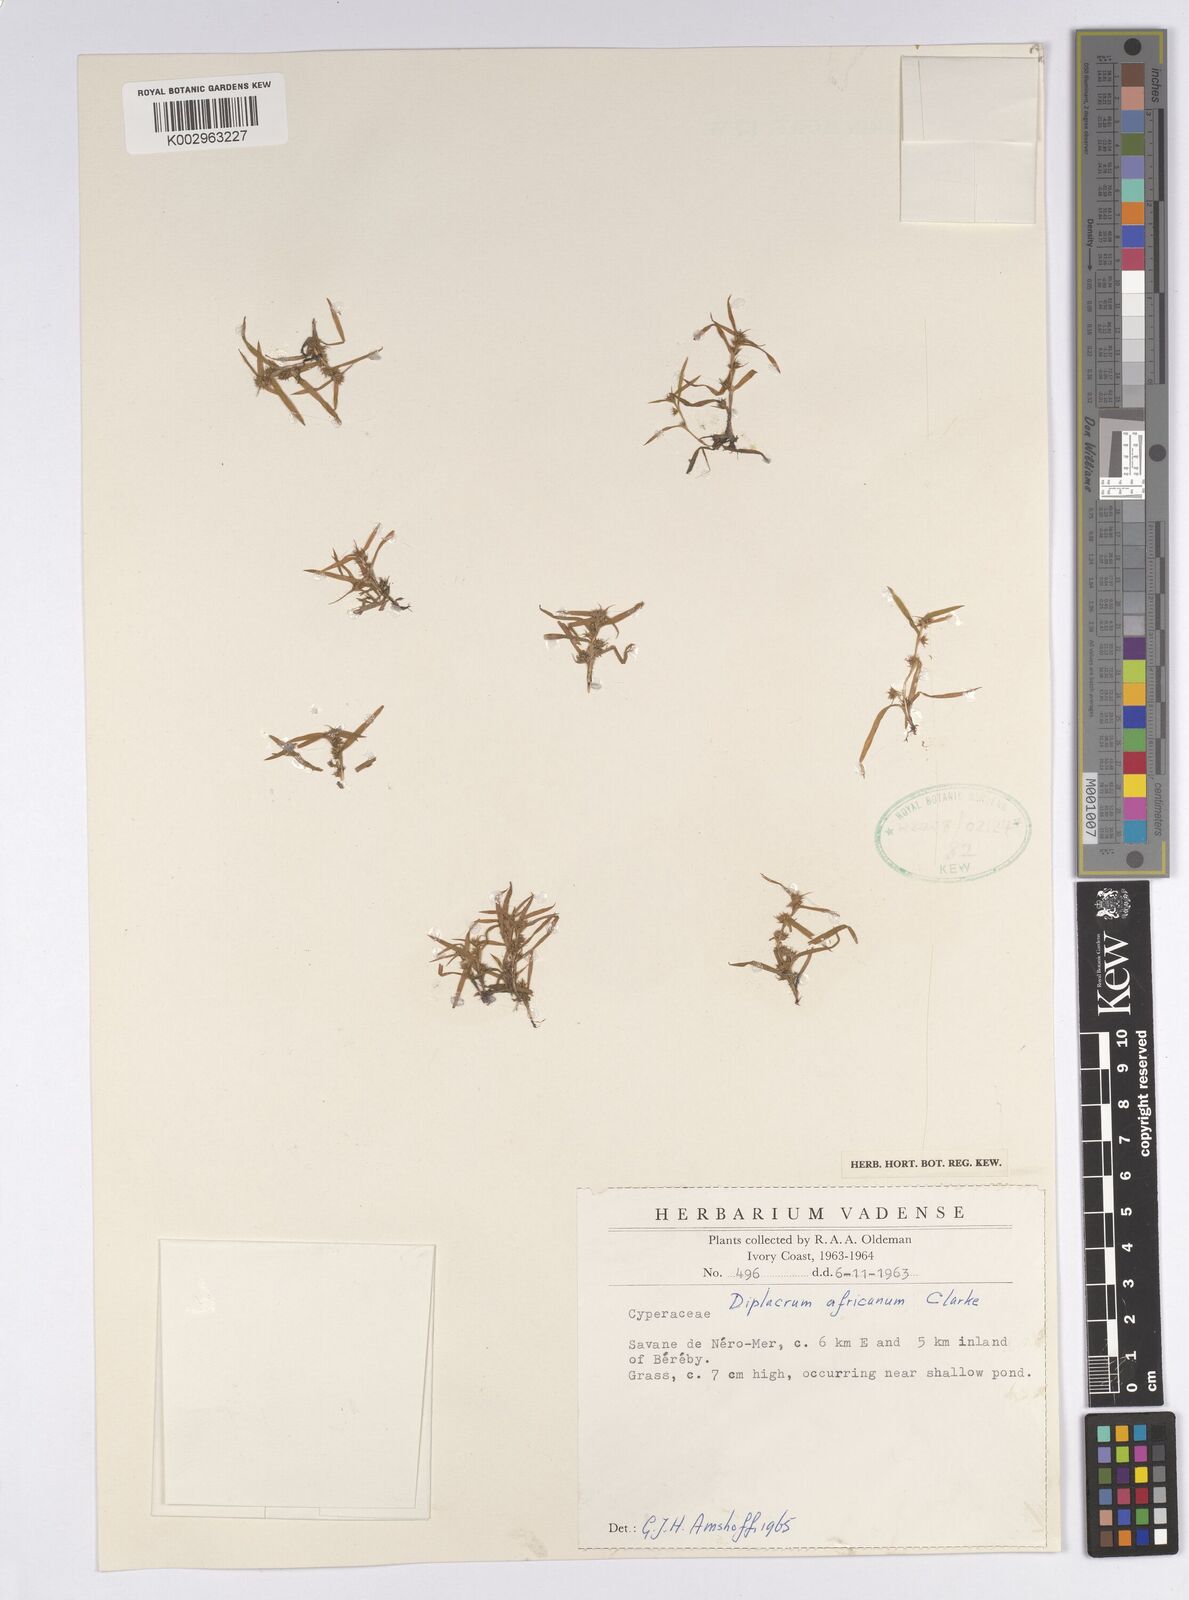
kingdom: Plantae
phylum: Tracheophyta
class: Liliopsida
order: Poales
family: Cyperaceae
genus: Diplacrum
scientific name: Diplacrum africanum
